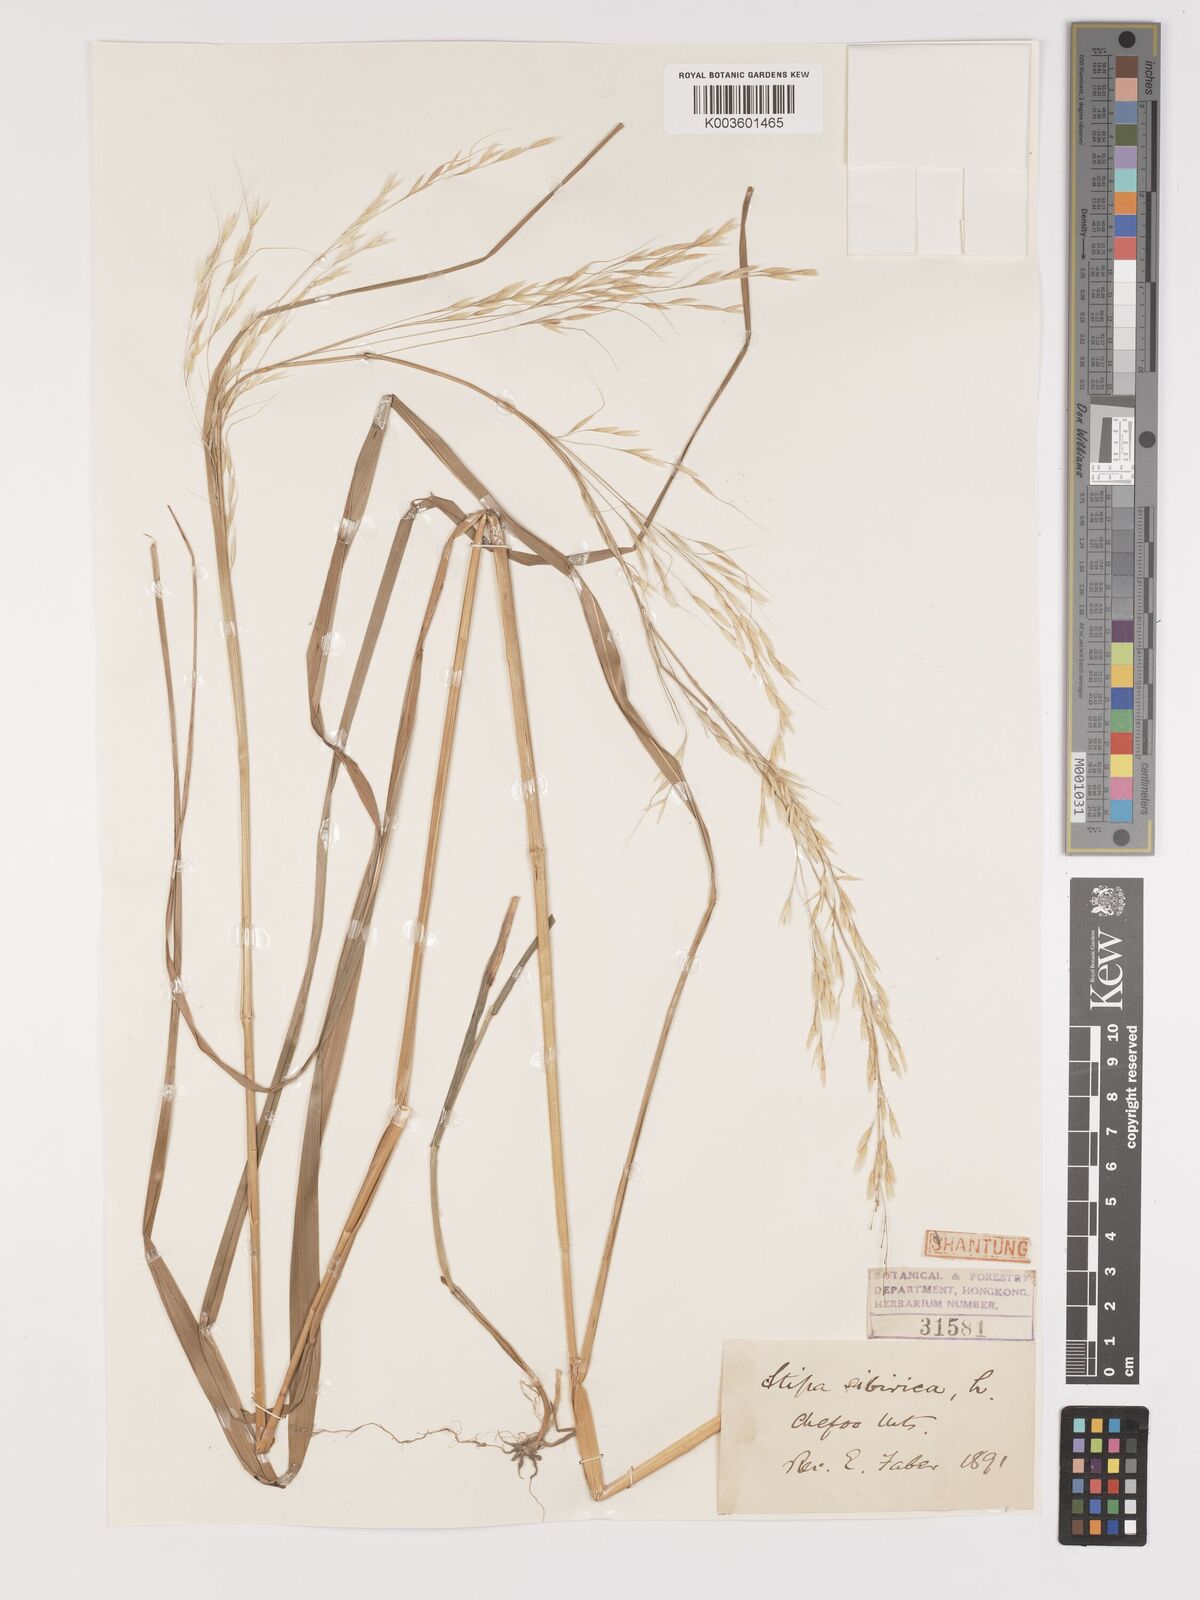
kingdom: Plantae
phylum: Tracheophyta
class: Liliopsida
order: Poales
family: Poaceae
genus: Achnatherum
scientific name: Achnatherum pekinense
